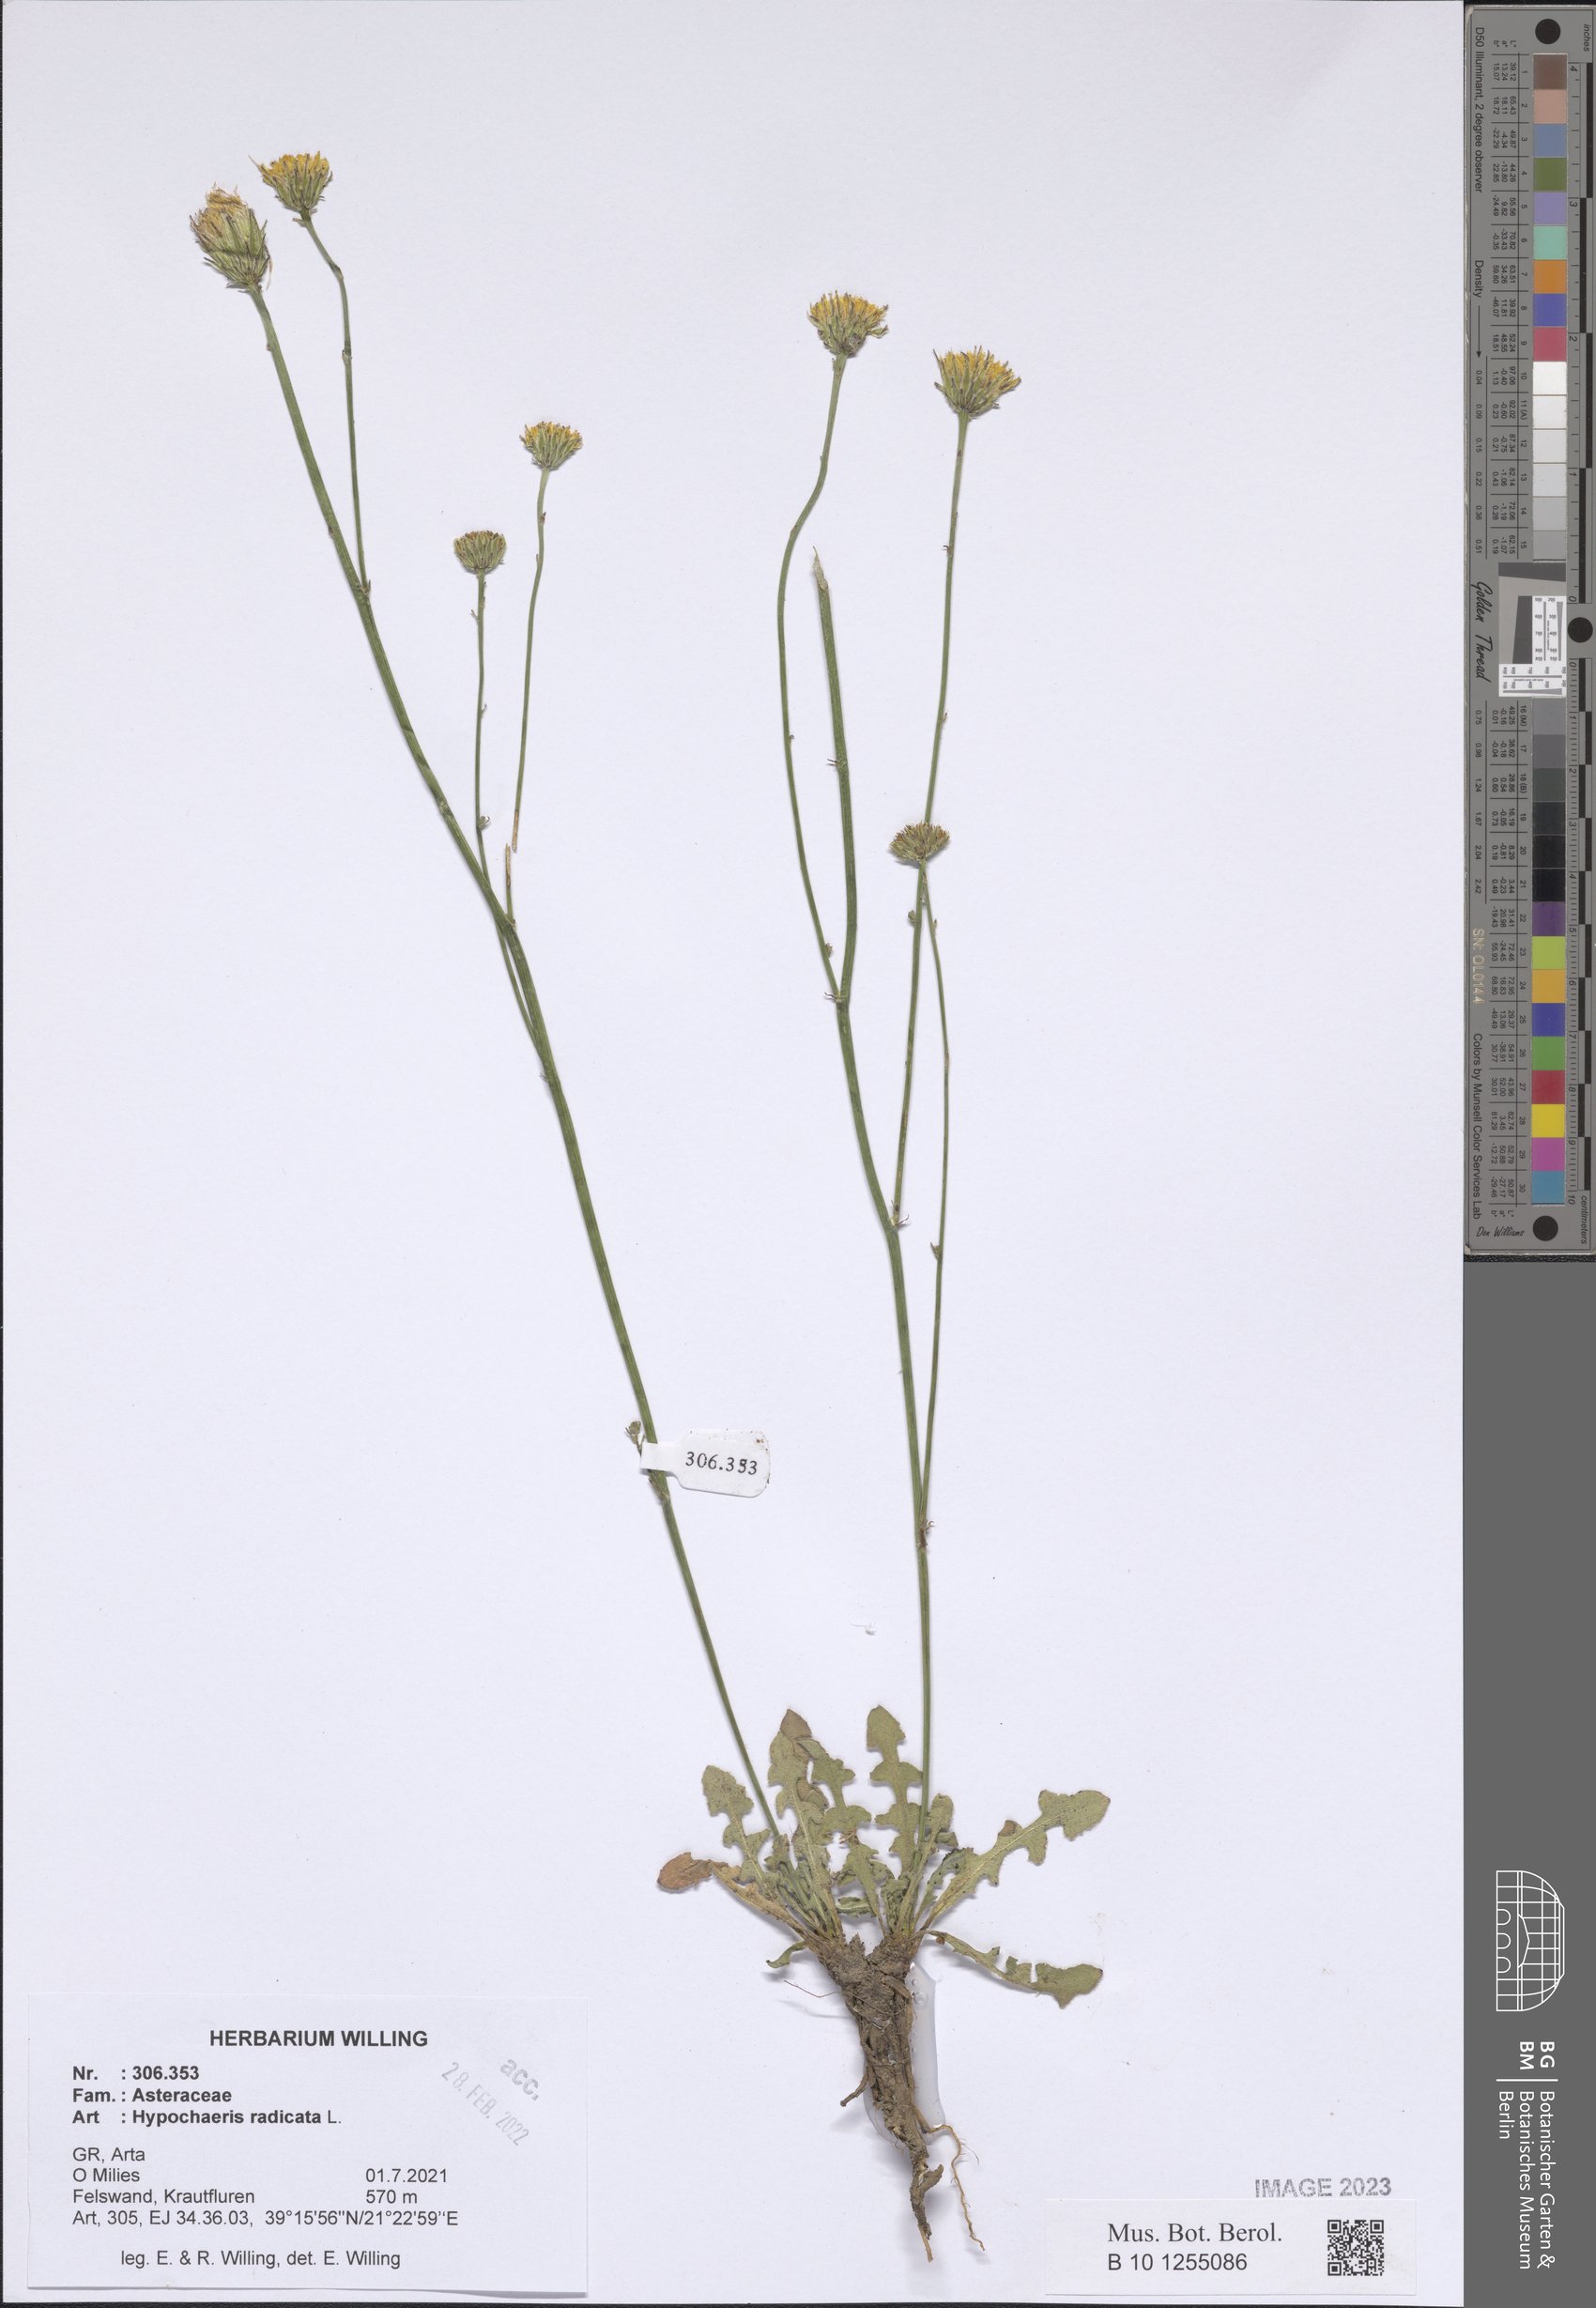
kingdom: Plantae
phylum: Tracheophyta
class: Magnoliopsida
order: Asterales
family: Asteraceae
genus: Hypochaeris
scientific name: Hypochaeris radicata
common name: Flatweed
